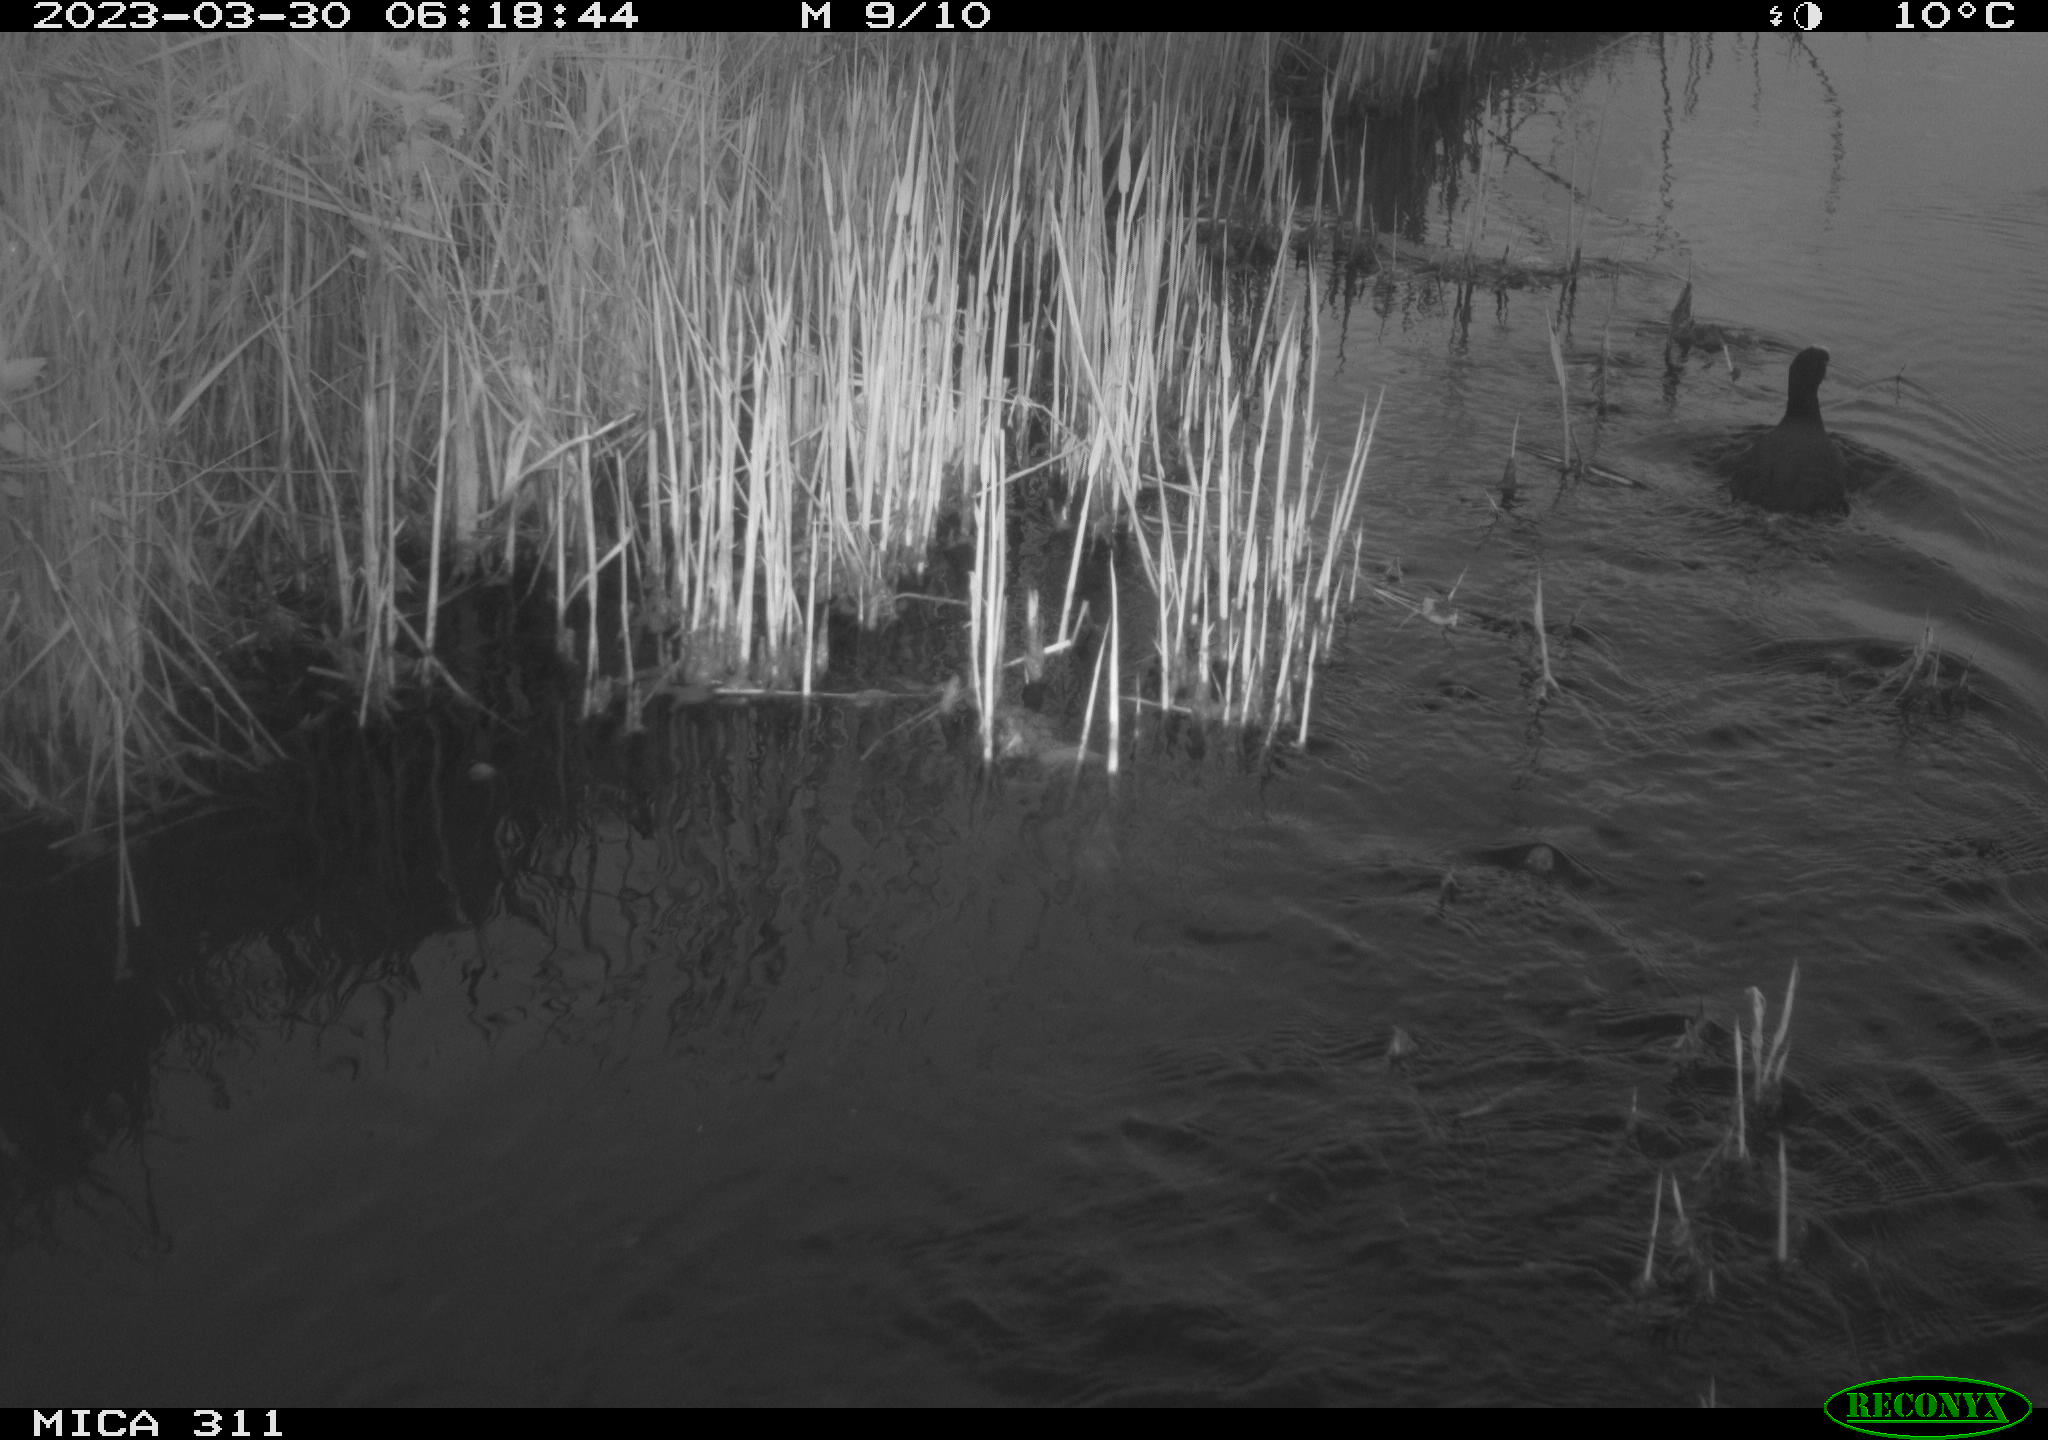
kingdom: Animalia
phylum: Chordata
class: Aves
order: Gruiformes
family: Rallidae
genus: Gallinula
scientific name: Gallinula chloropus
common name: Common moorhen
